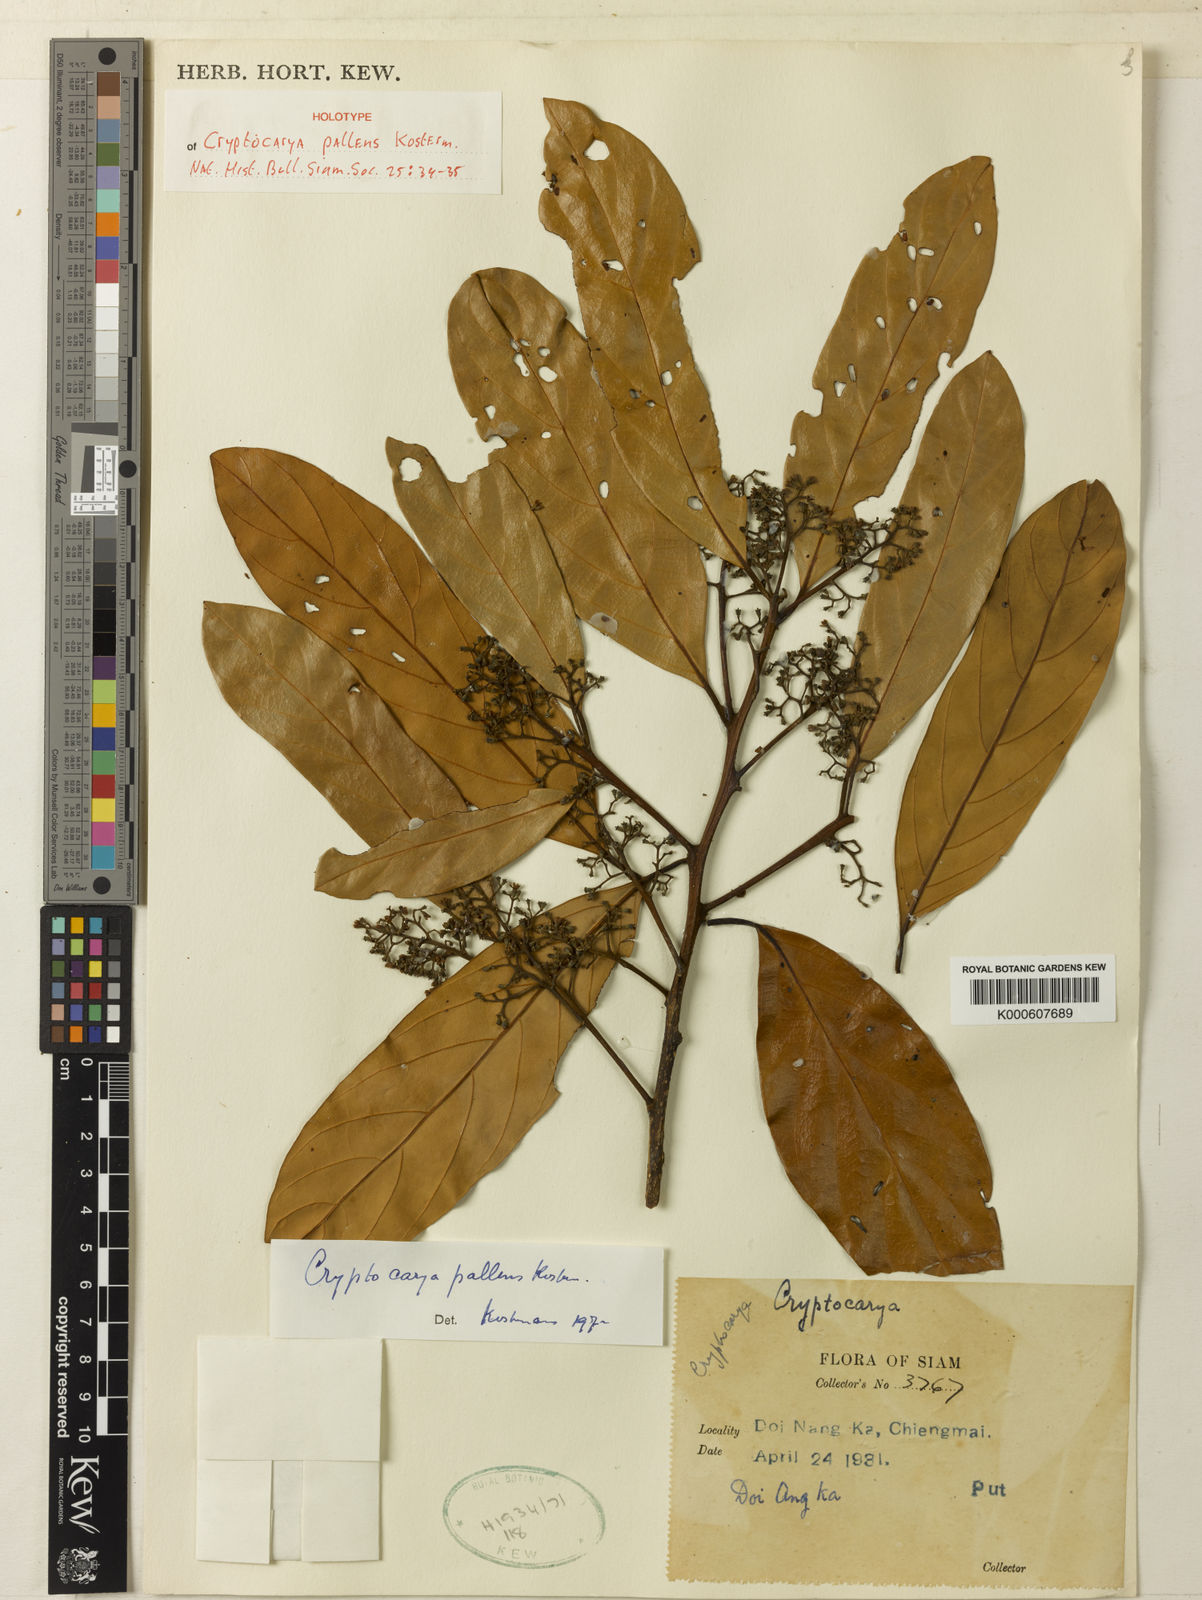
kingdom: Plantae
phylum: Tracheophyta
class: Magnoliopsida
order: Laurales
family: Lauraceae
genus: Cryptocarya
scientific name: Cryptocarya pallens
